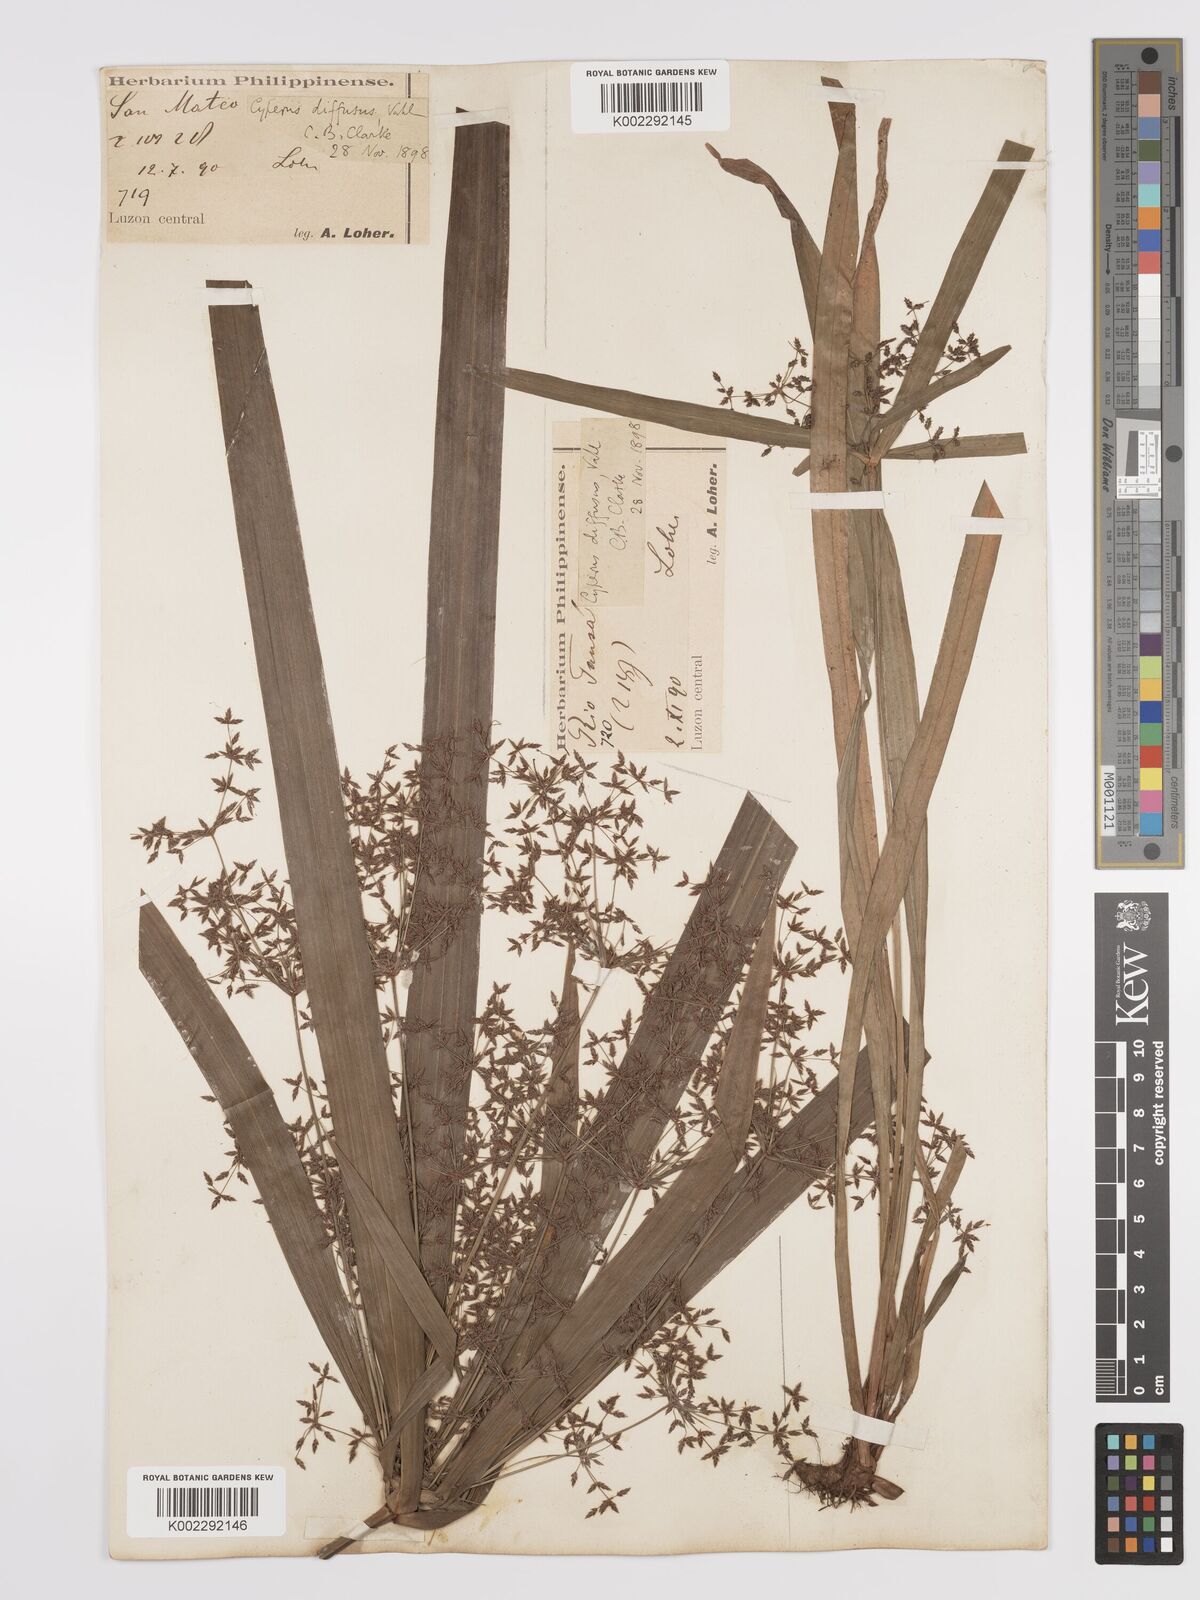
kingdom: Plantae
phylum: Tracheophyta
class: Liliopsida
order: Poales
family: Cyperaceae
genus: Cyperus
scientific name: Cyperus diffusus
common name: Dwarf umbrella grass
